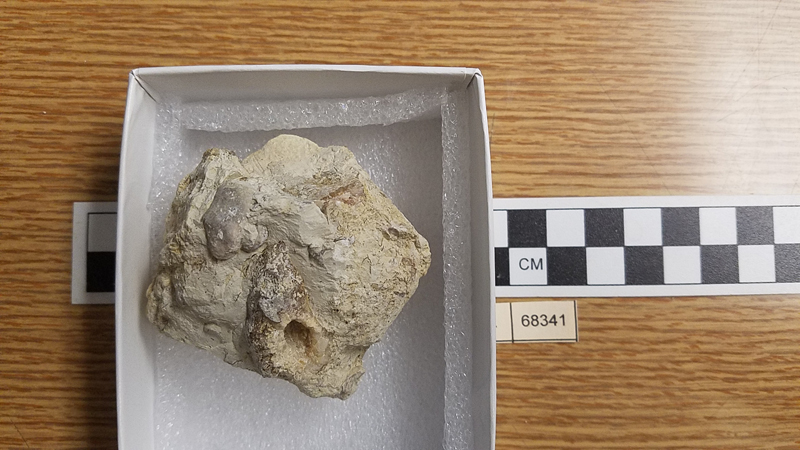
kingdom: Animalia
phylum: Mollusca
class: Gastropoda
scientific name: Gastropoda
